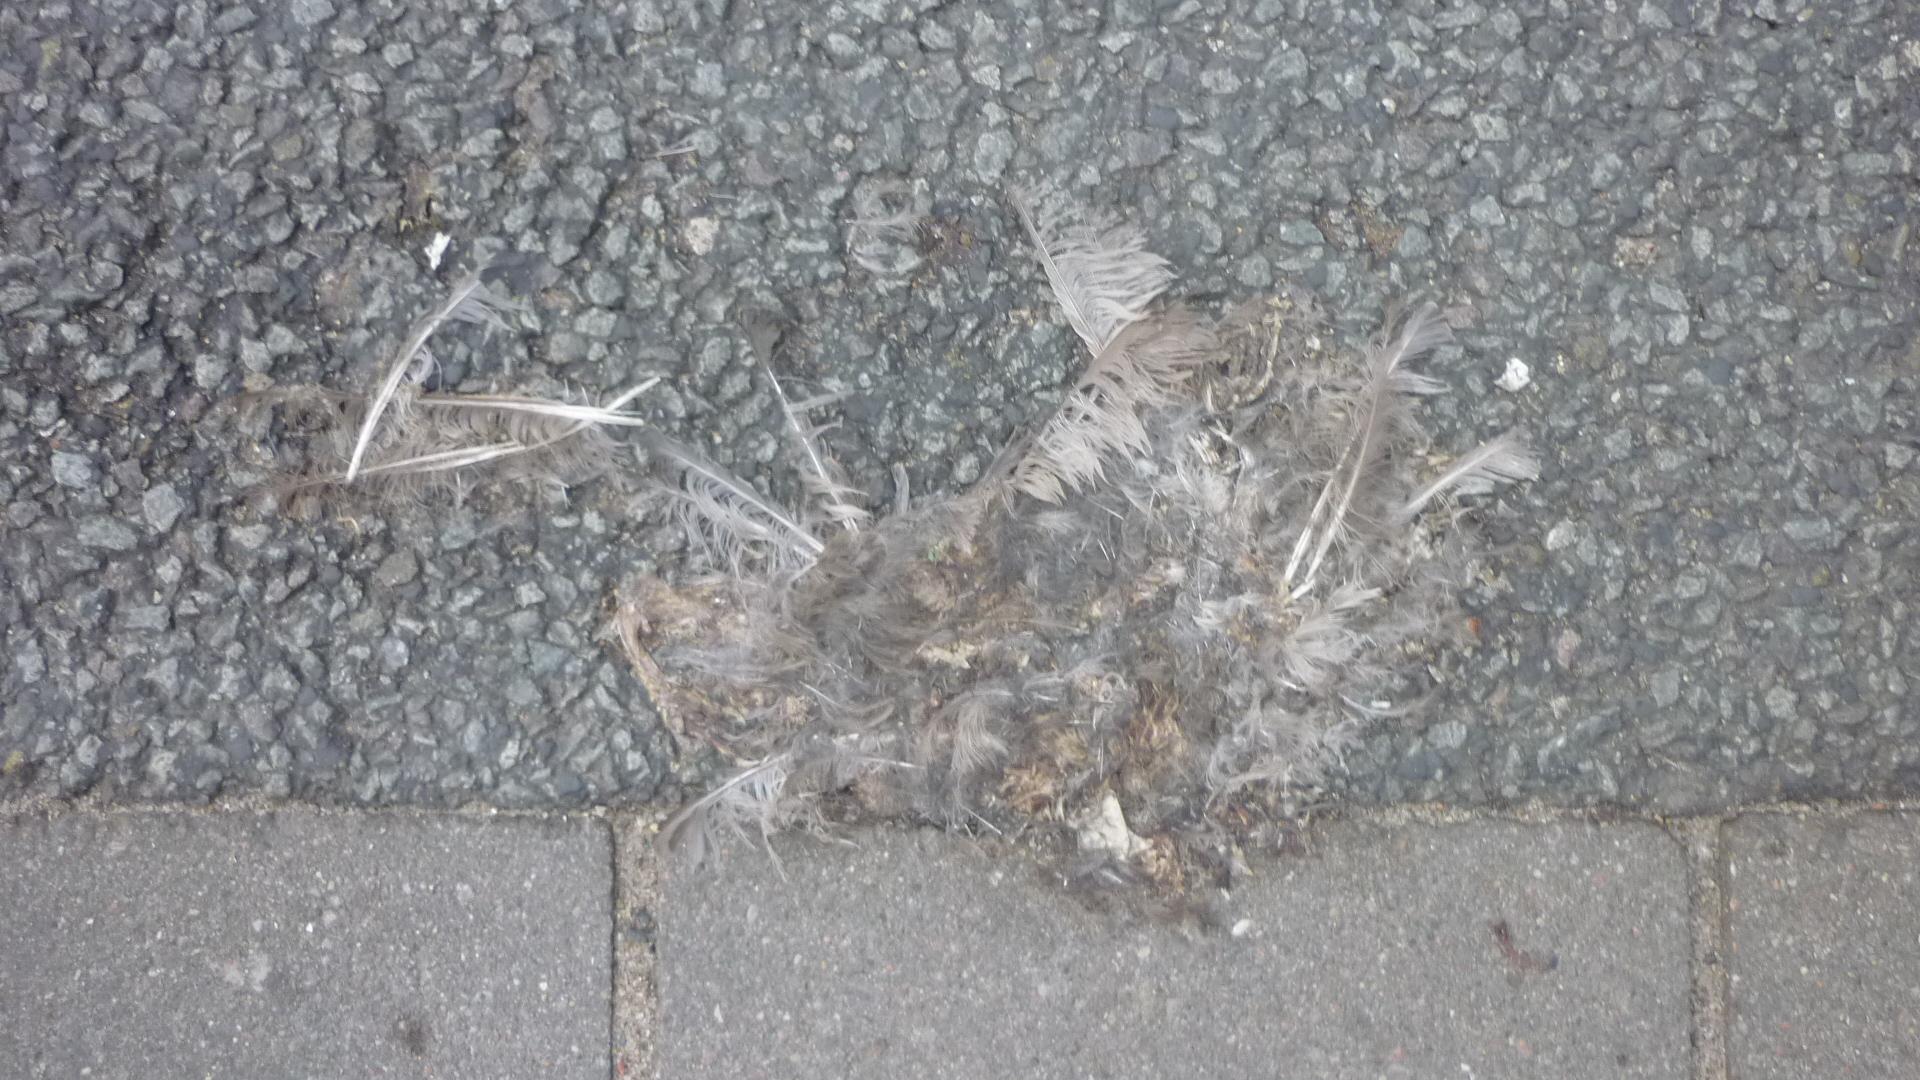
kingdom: Animalia
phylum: Chordata
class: Aves
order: Passeriformes
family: Turdidae
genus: Turdus
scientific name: Turdus merula
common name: Common blackbird
